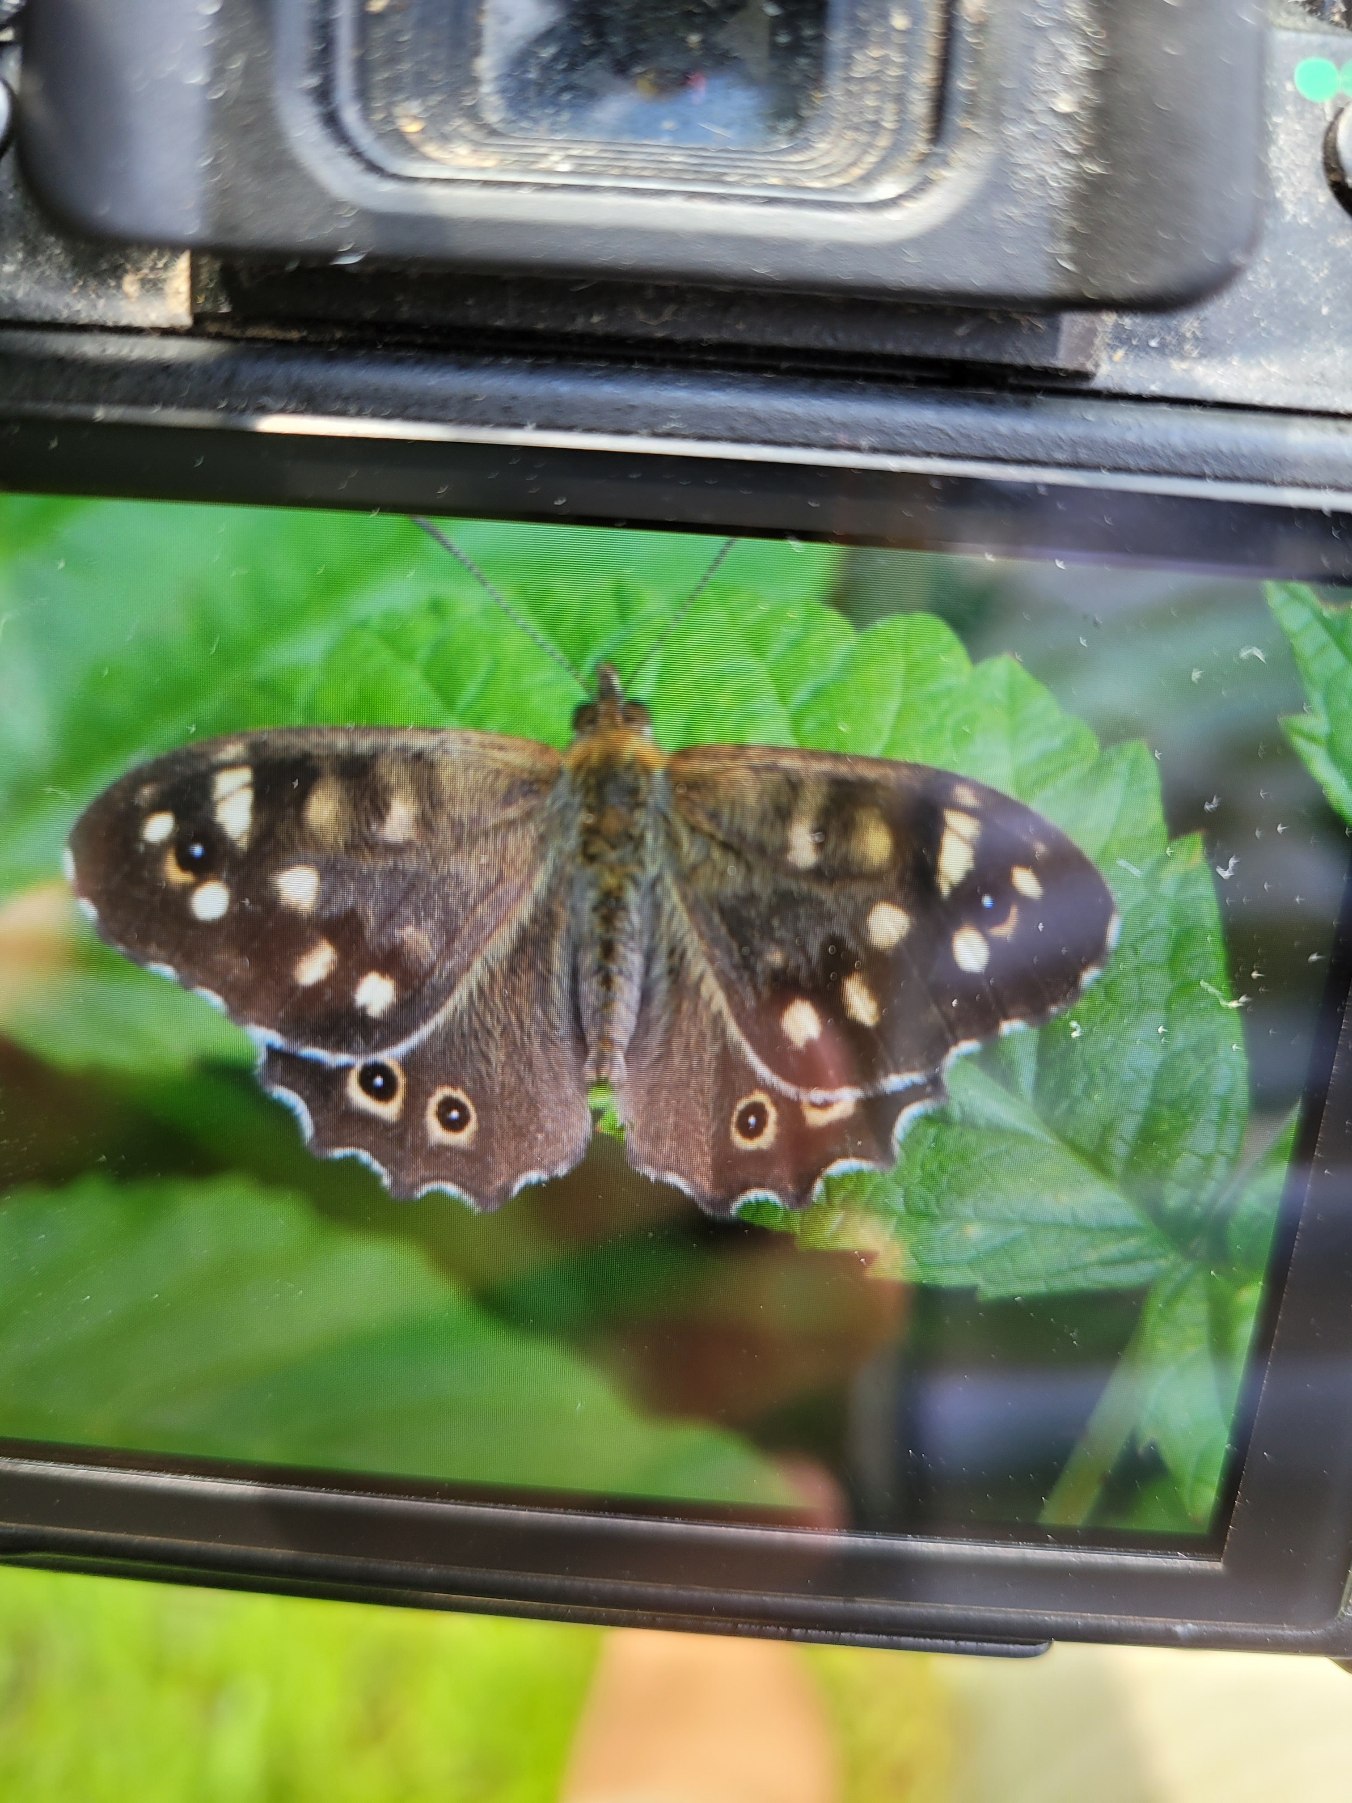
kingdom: Animalia
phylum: Arthropoda
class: Insecta
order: Lepidoptera
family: Nymphalidae
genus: Pararge
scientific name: Pararge aegeria
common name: Skovrandøje
